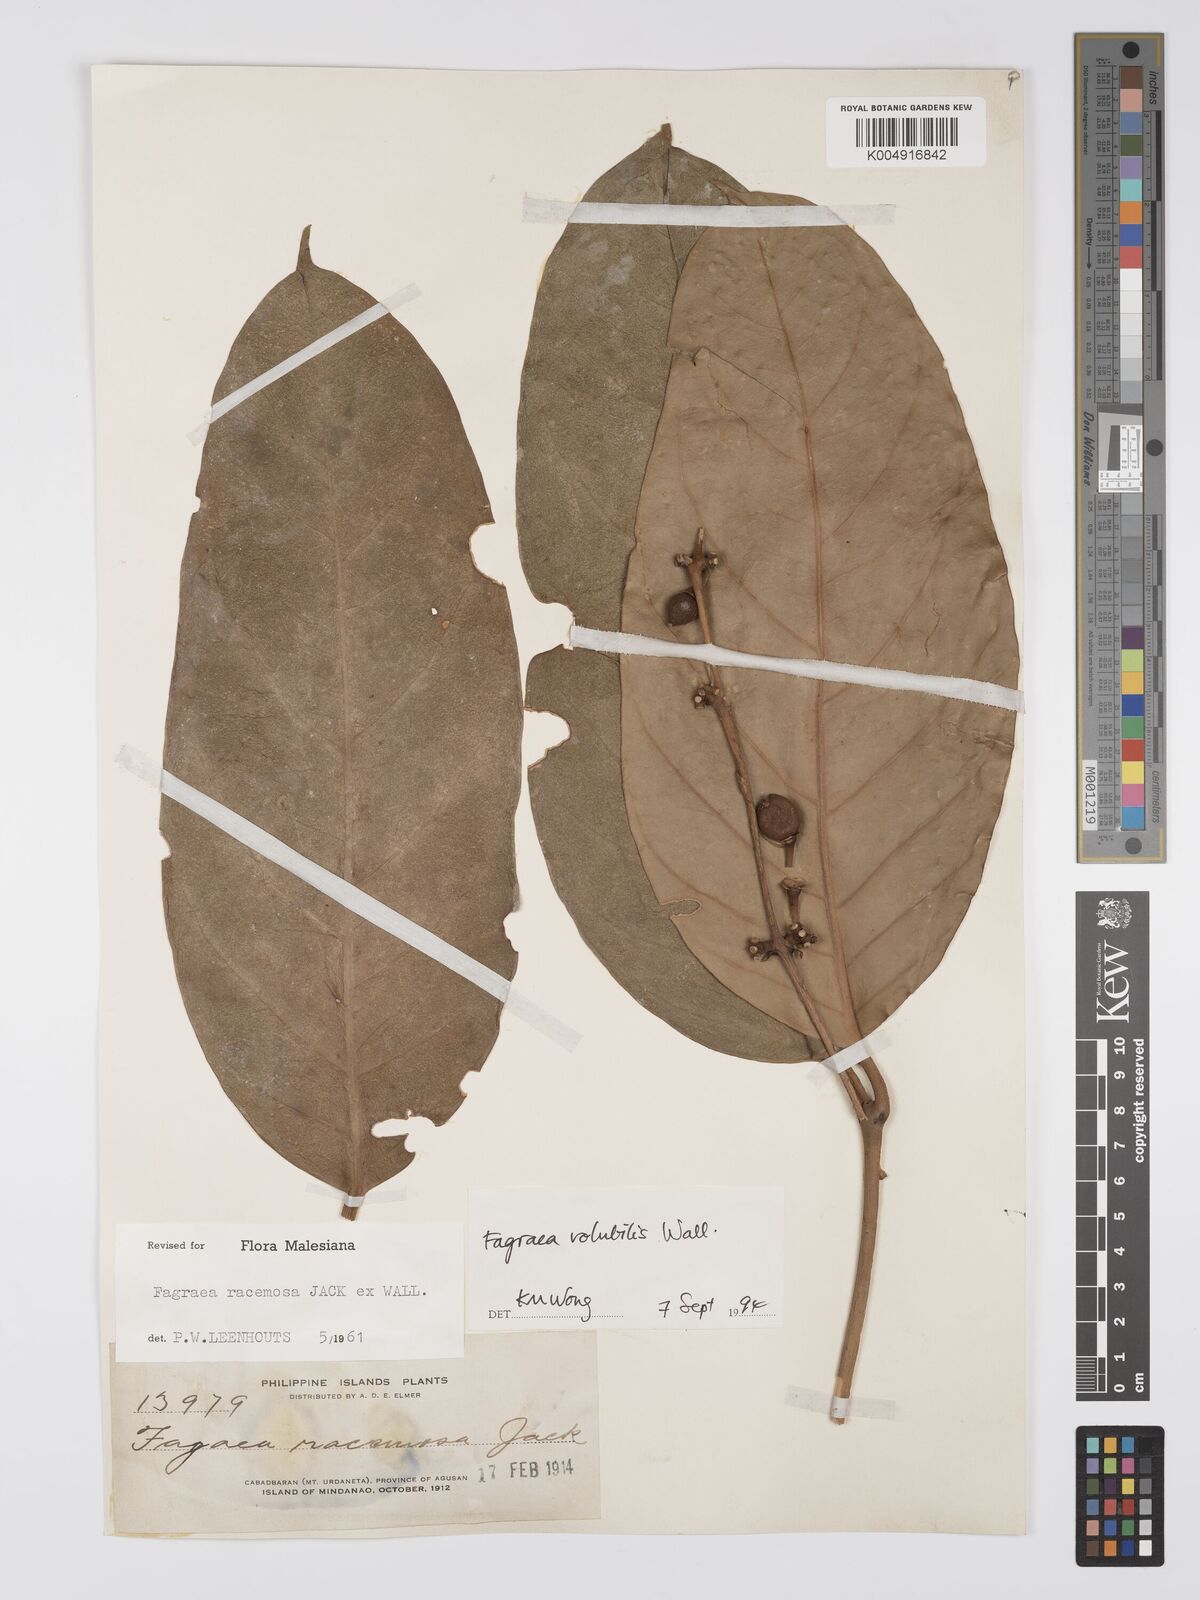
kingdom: Plantae
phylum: Tracheophyta
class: Magnoliopsida
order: Gentianales
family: Gentianaceae
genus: Utania
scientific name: Utania racemosa
